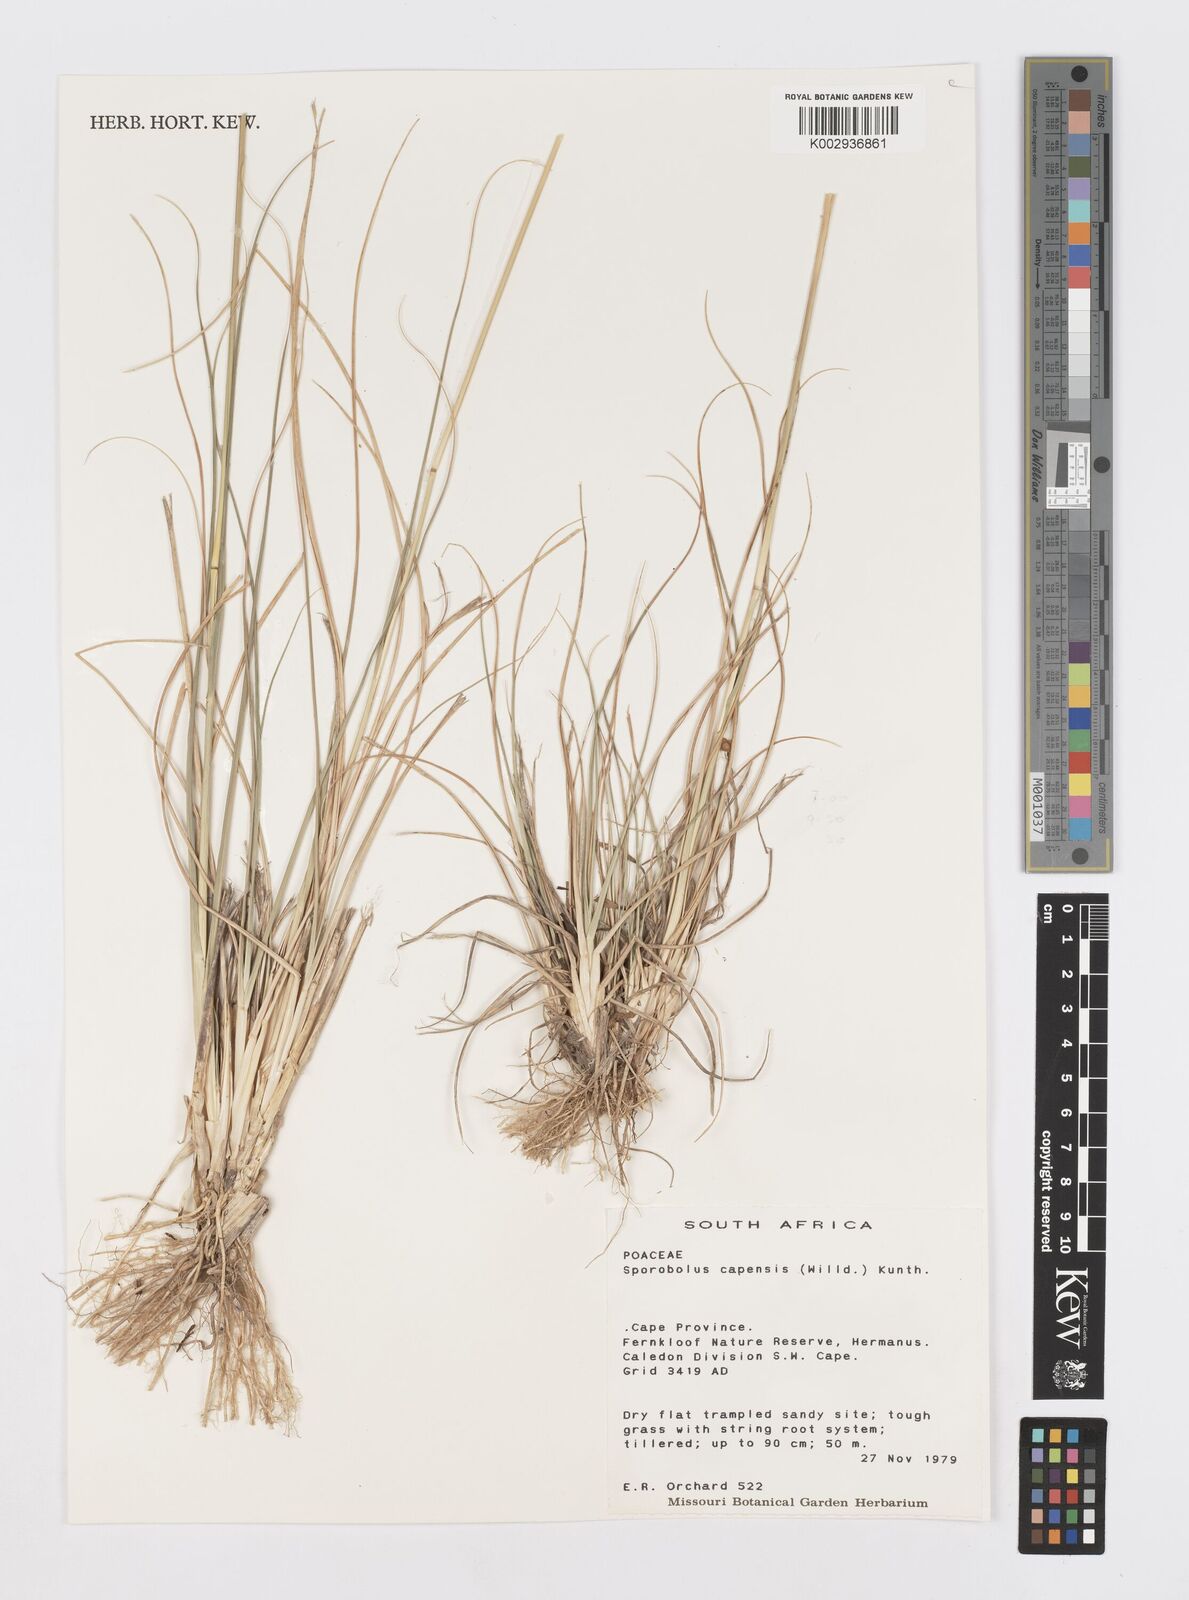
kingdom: Plantae
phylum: Tracheophyta
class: Liliopsida
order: Poales
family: Poaceae
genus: Sporobolus
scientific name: Sporobolus africanus
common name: African dropseed
